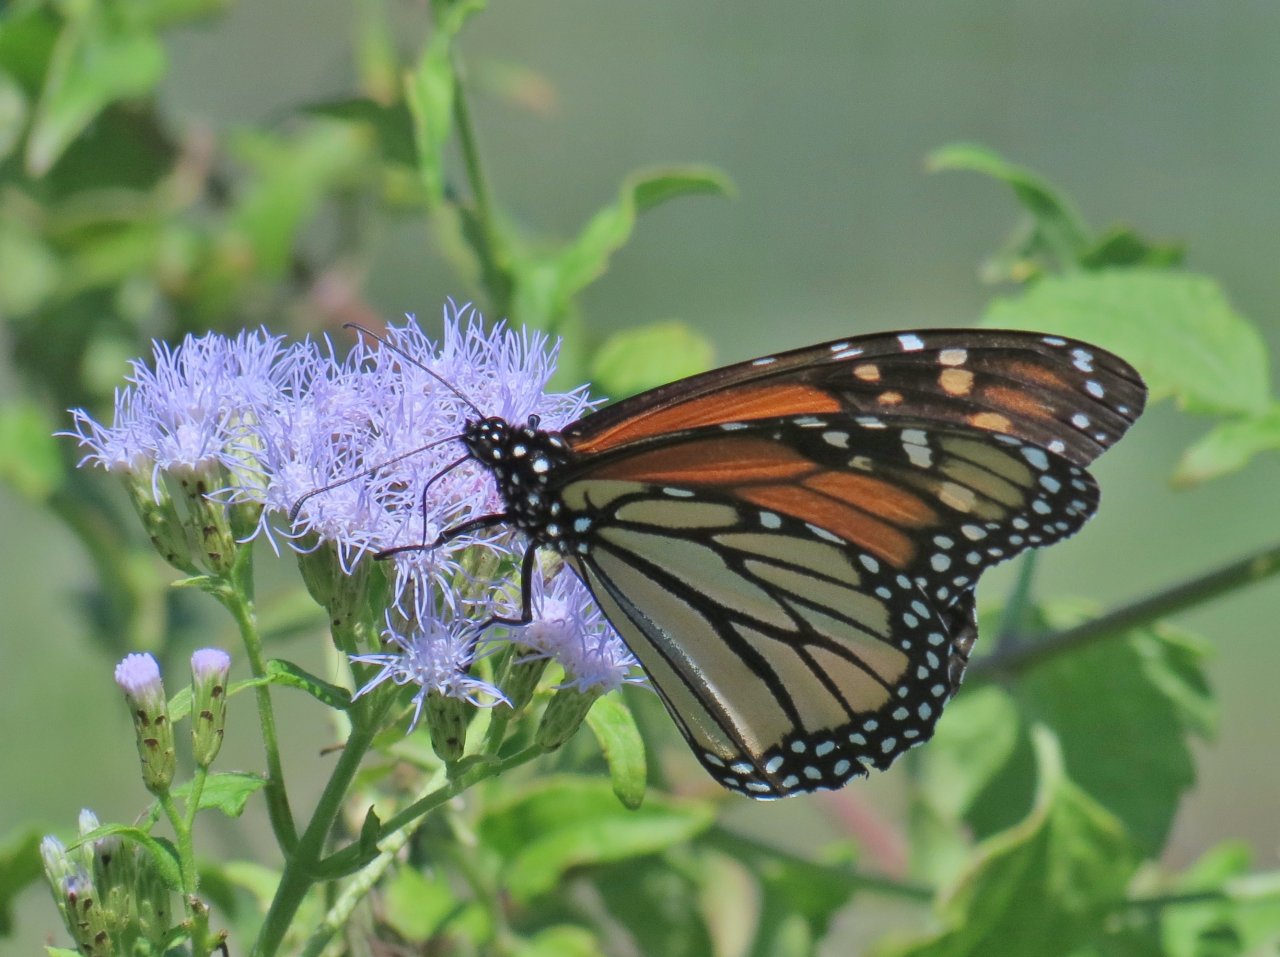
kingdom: Animalia
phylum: Arthropoda
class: Insecta
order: Lepidoptera
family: Nymphalidae
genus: Danaus
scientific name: Danaus plexippus
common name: Monarch
